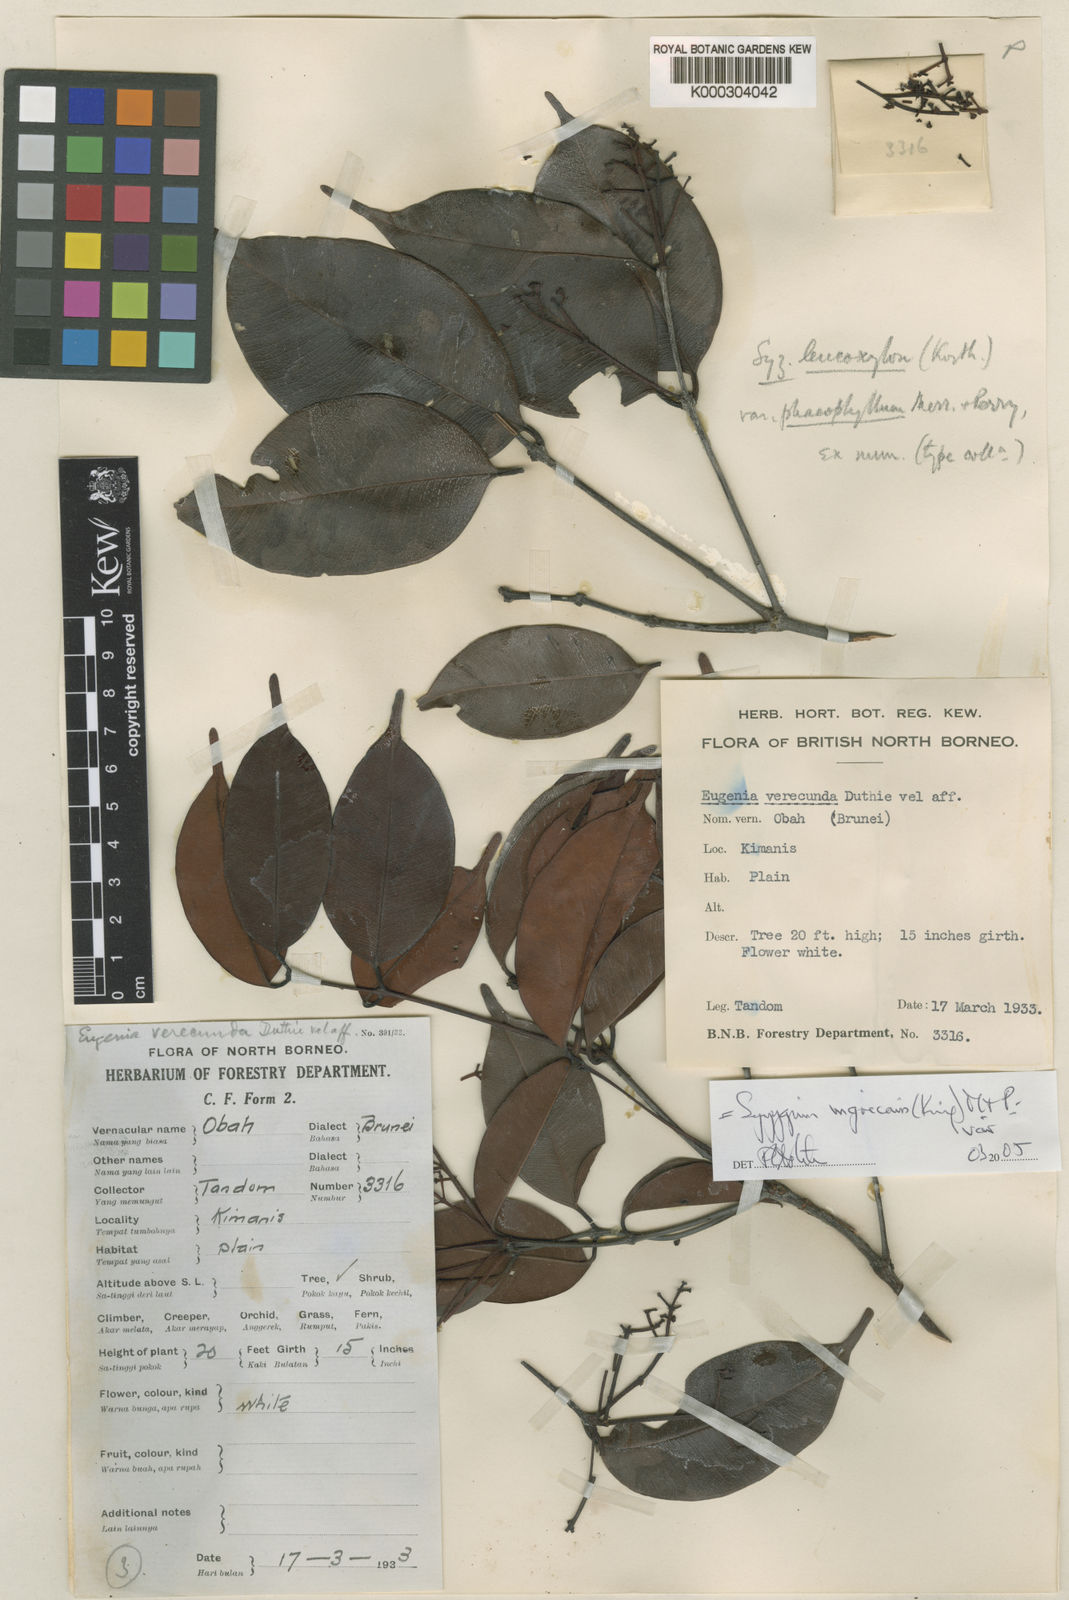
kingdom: Plantae
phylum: Tracheophyta
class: Magnoliopsida
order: Myrtales
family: Myrtaceae
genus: Syzygium
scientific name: Syzygium nigricans
